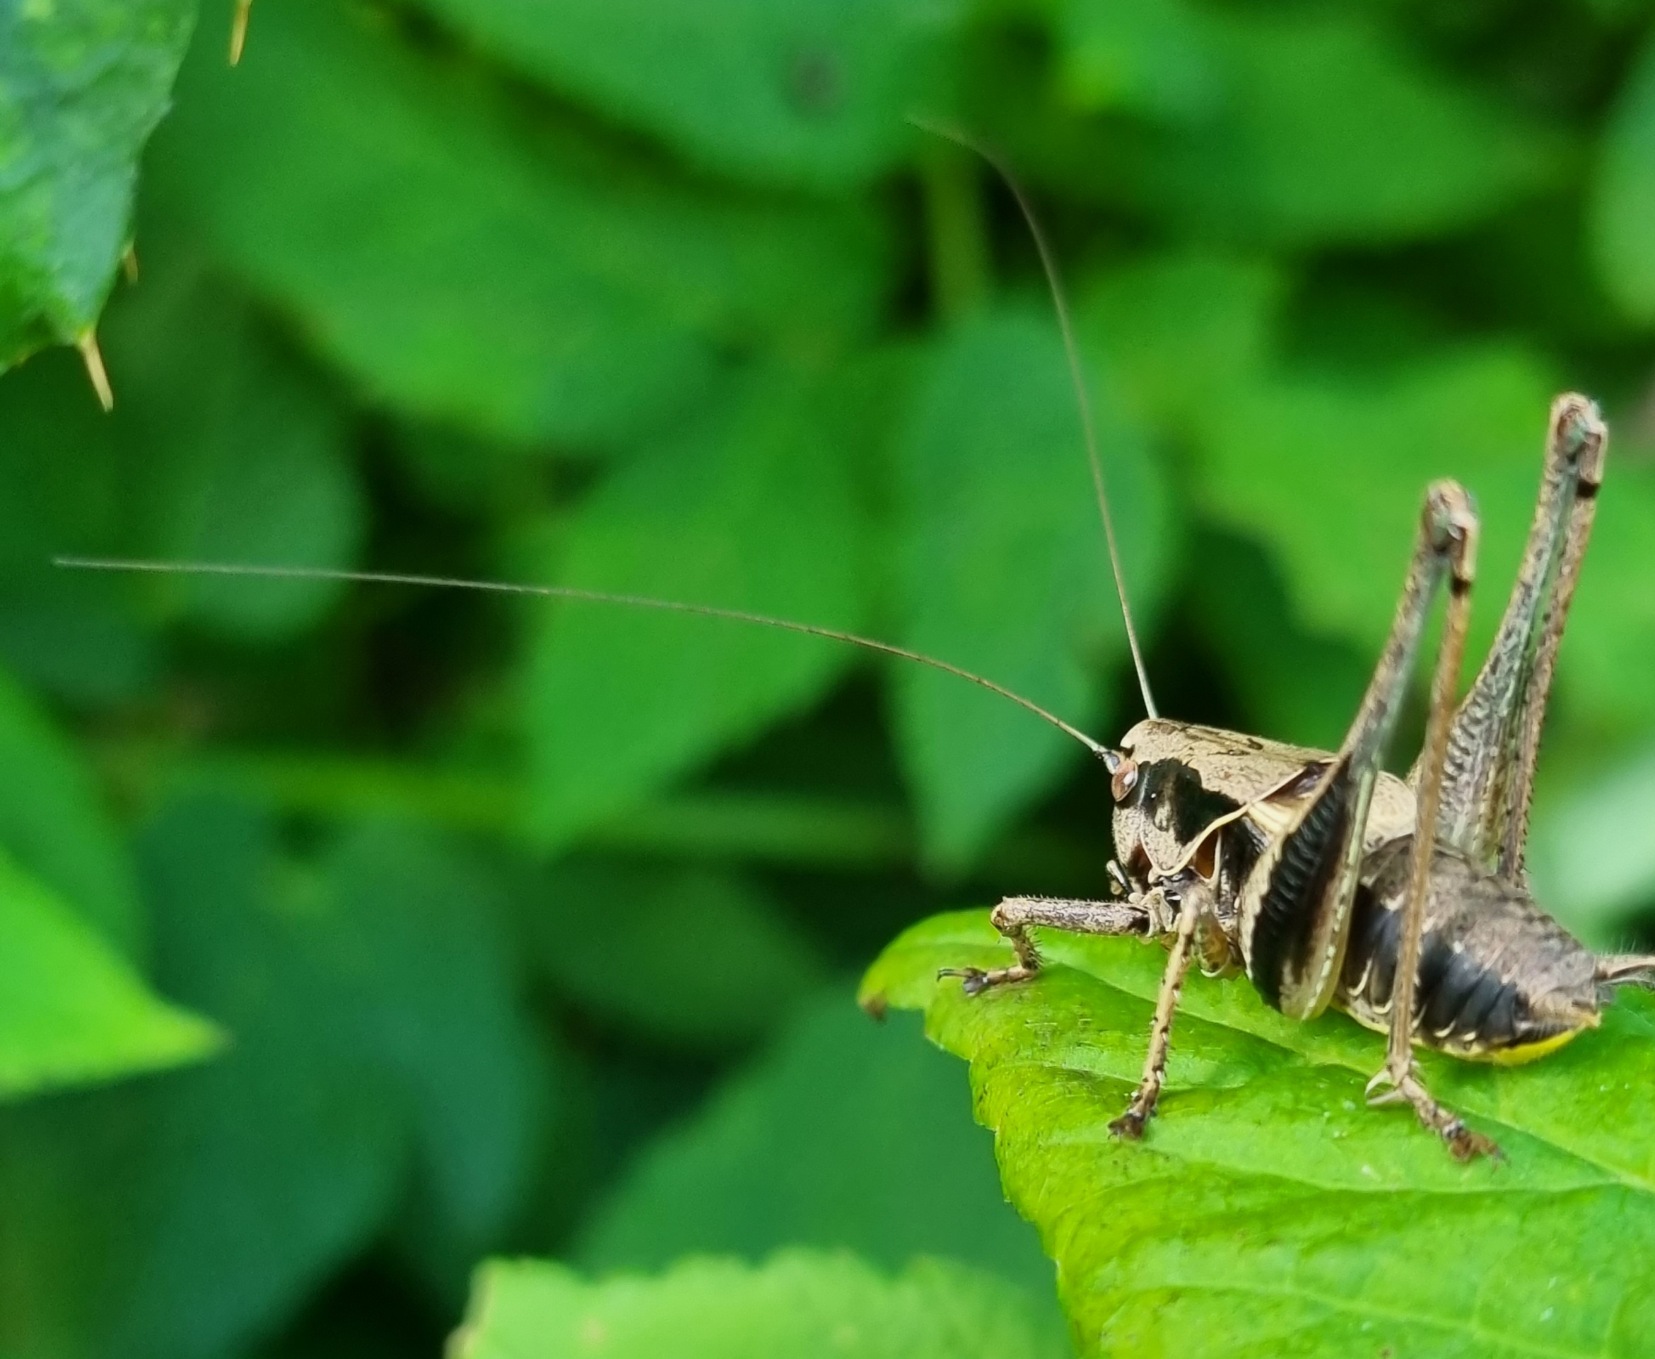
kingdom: Animalia
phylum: Arthropoda
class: Insecta
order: Orthoptera
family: Tettigoniidae
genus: Pholidoptera
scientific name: Pholidoptera griseoaptera
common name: Buskgræshoppe
